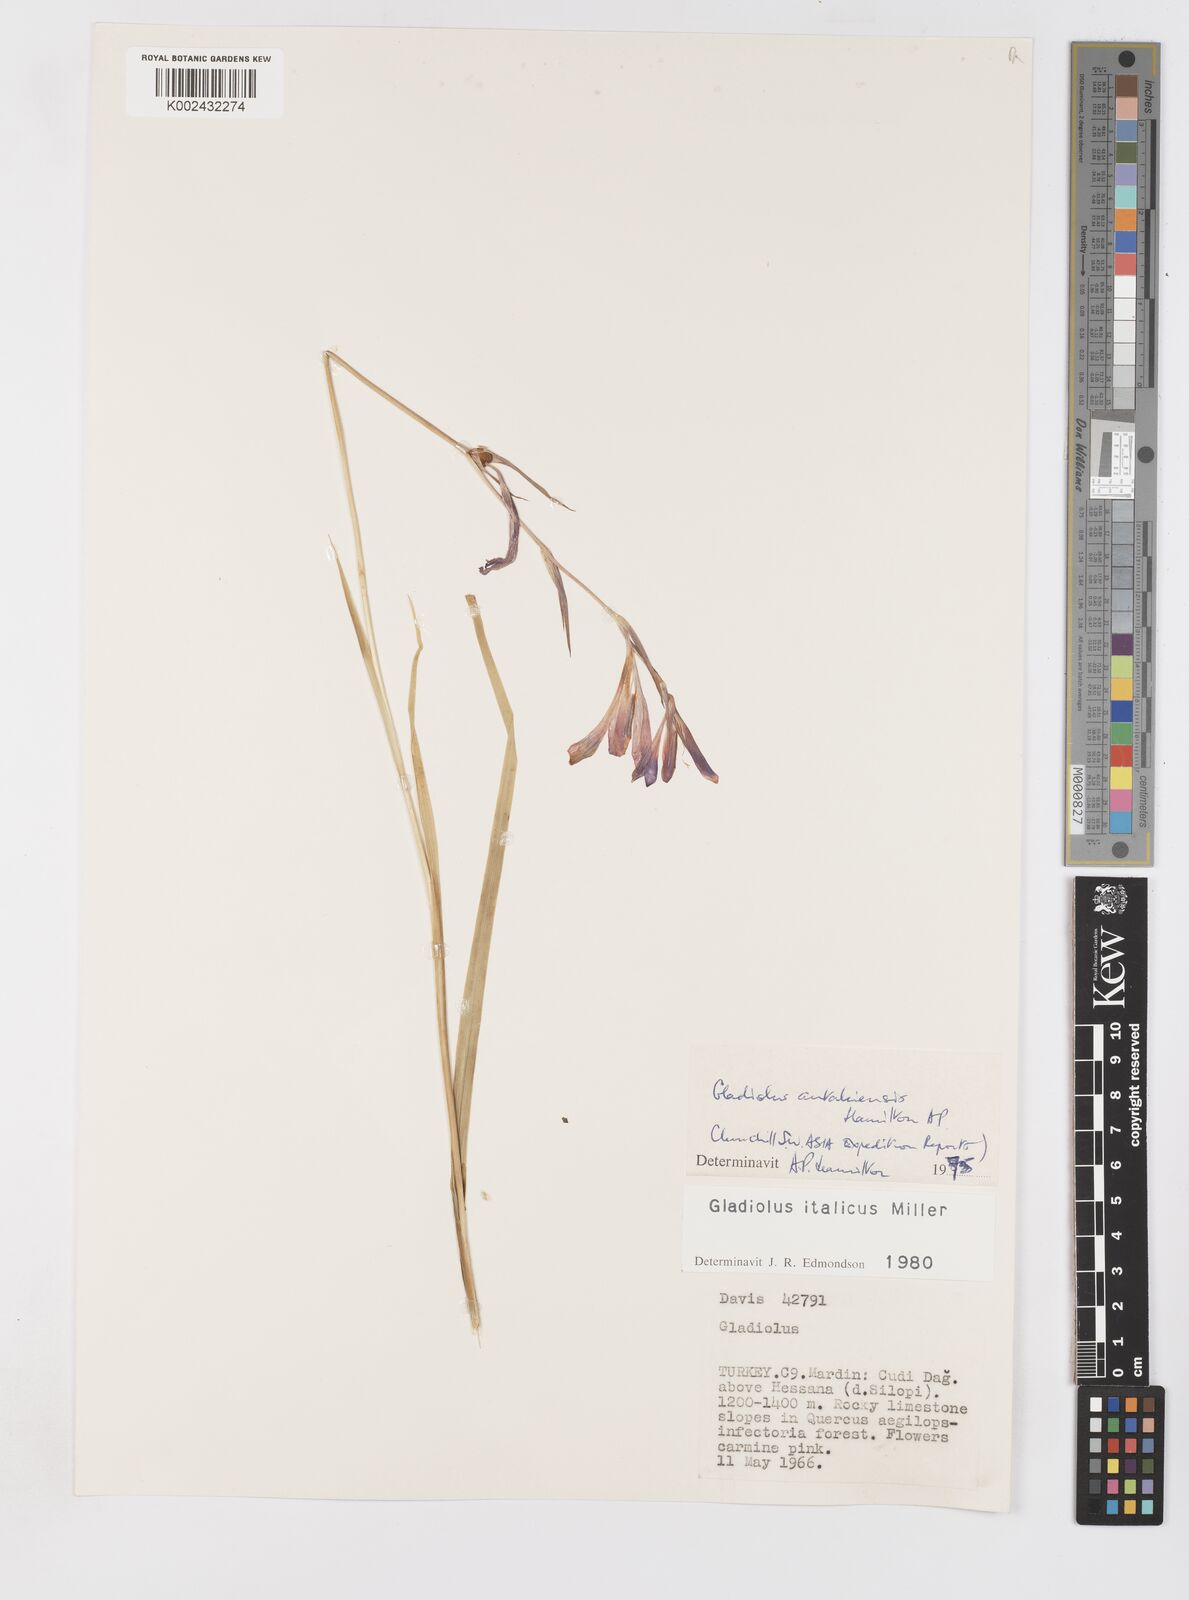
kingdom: Plantae
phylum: Tracheophyta
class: Liliopsida
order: Asparagales
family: Iridaceae
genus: Gladiolus
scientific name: Gladiolus antakiensis
